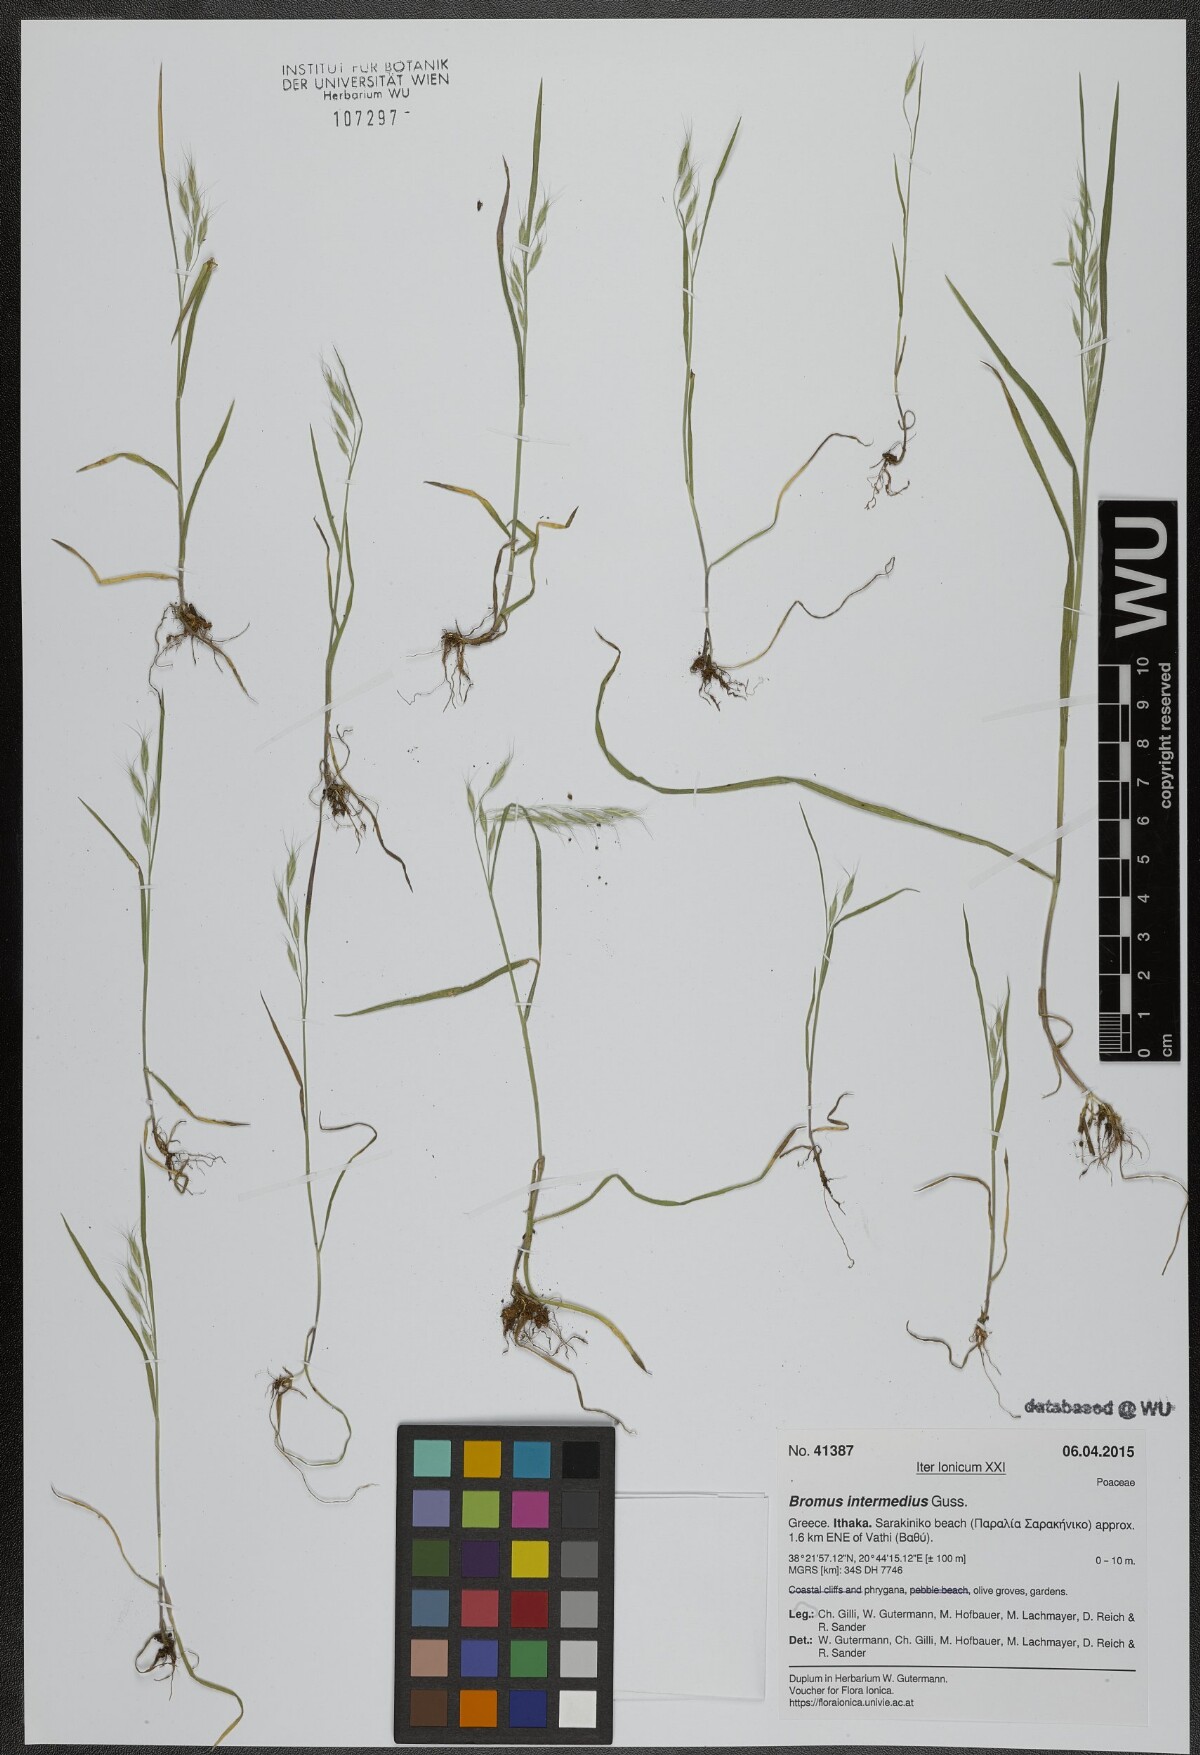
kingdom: Plantae
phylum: Tracheophyta
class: Liliopsida
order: Poales
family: Poaceae
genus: Bromus
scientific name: Bromus intermedius
